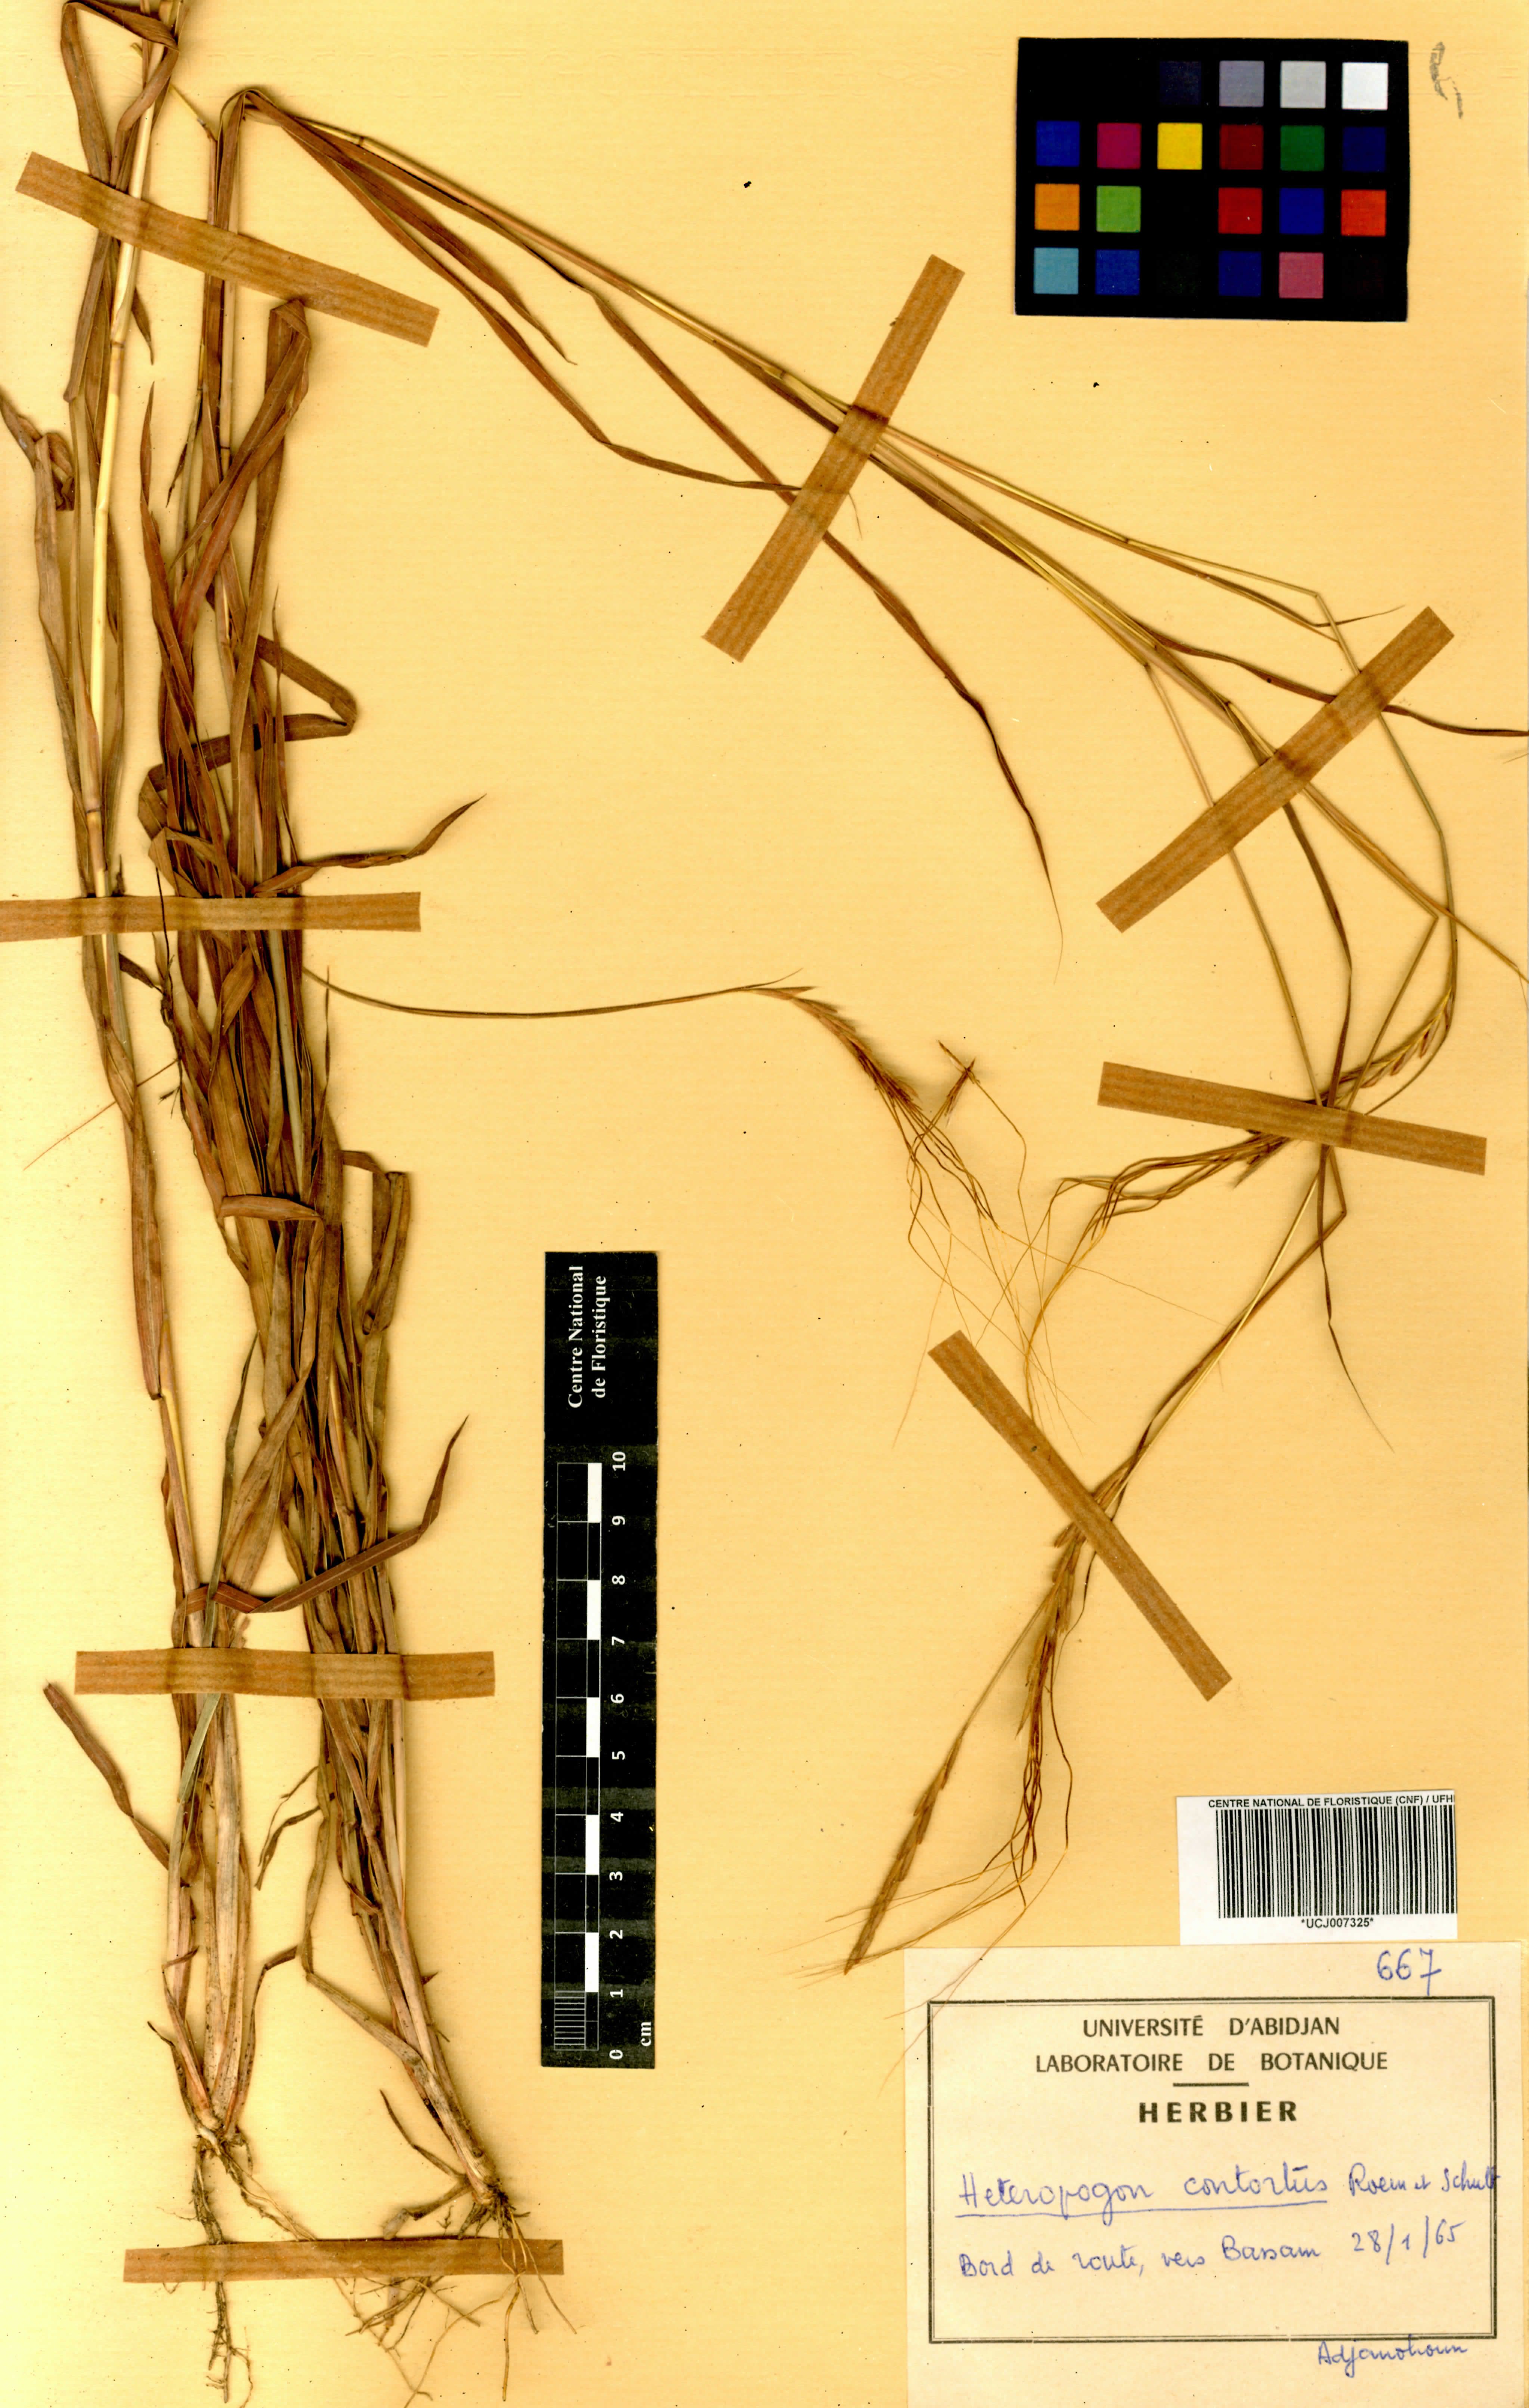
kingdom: Plantae
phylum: Tracheophyta
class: Liliopsida
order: Poales
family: Poaceae
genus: Heteropogon
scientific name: Heteropogon contortus
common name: Tanglehead
